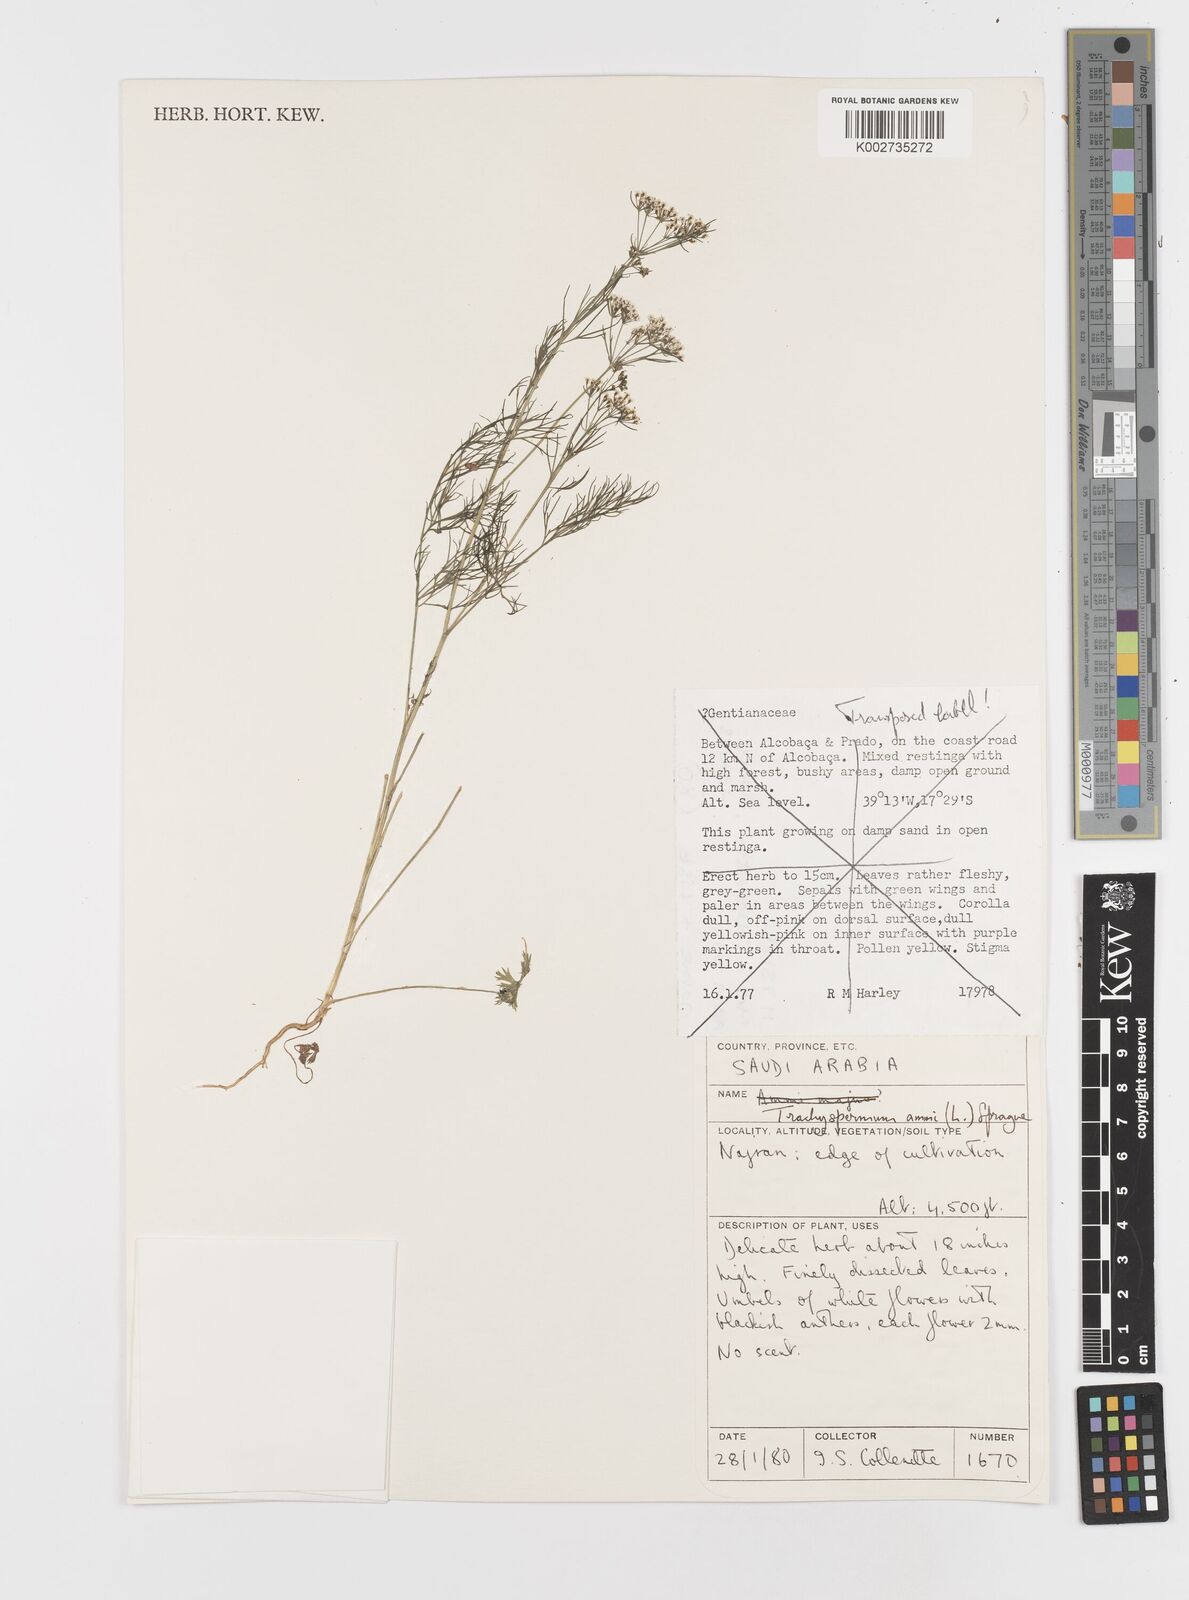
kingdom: Plantae
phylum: Tracheophyta
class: Magnoliopsida
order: Apiales
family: Apiaceae
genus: Trachyspermum
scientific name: Trachyspermum ammi
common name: Ajowan
